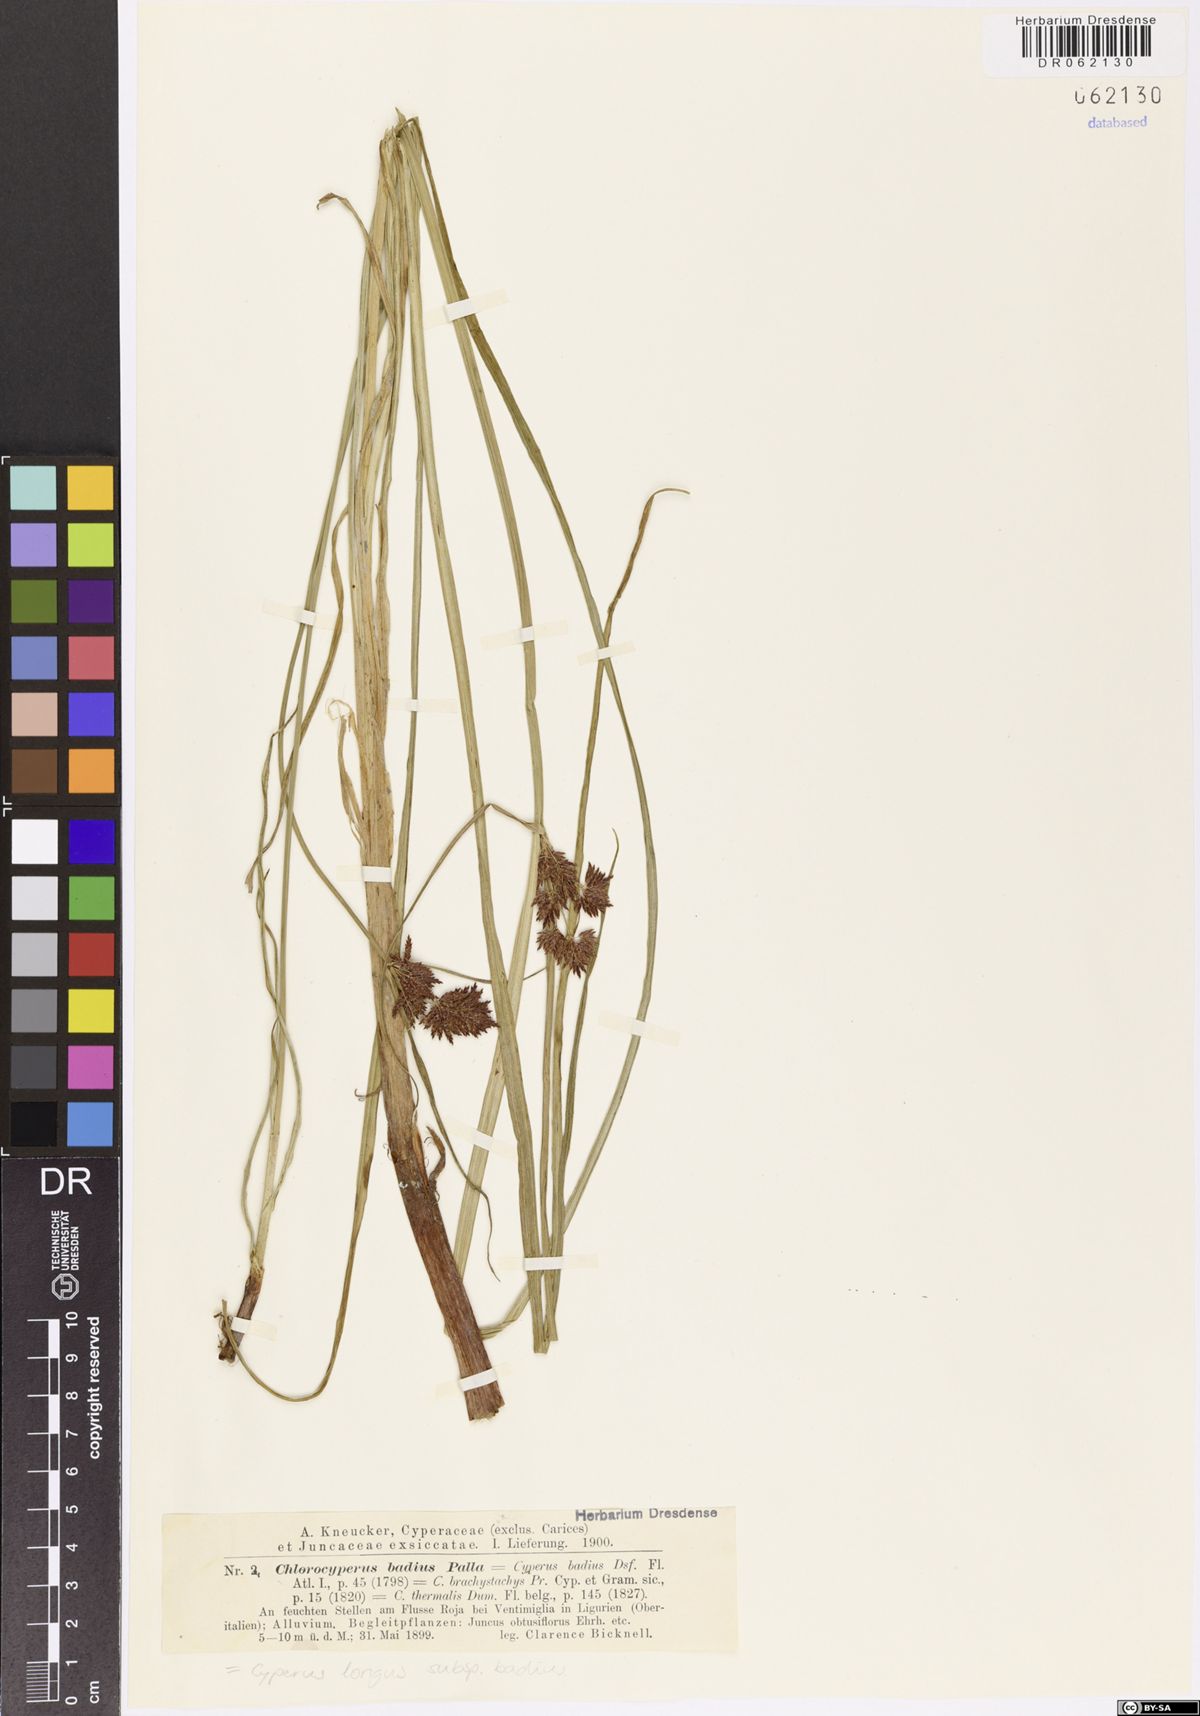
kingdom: Plantae
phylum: Tracheophyta
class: Liliopsida
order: Poales
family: Cyperaceae
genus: Cyperus
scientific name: Cyperus longus
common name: Galingale
